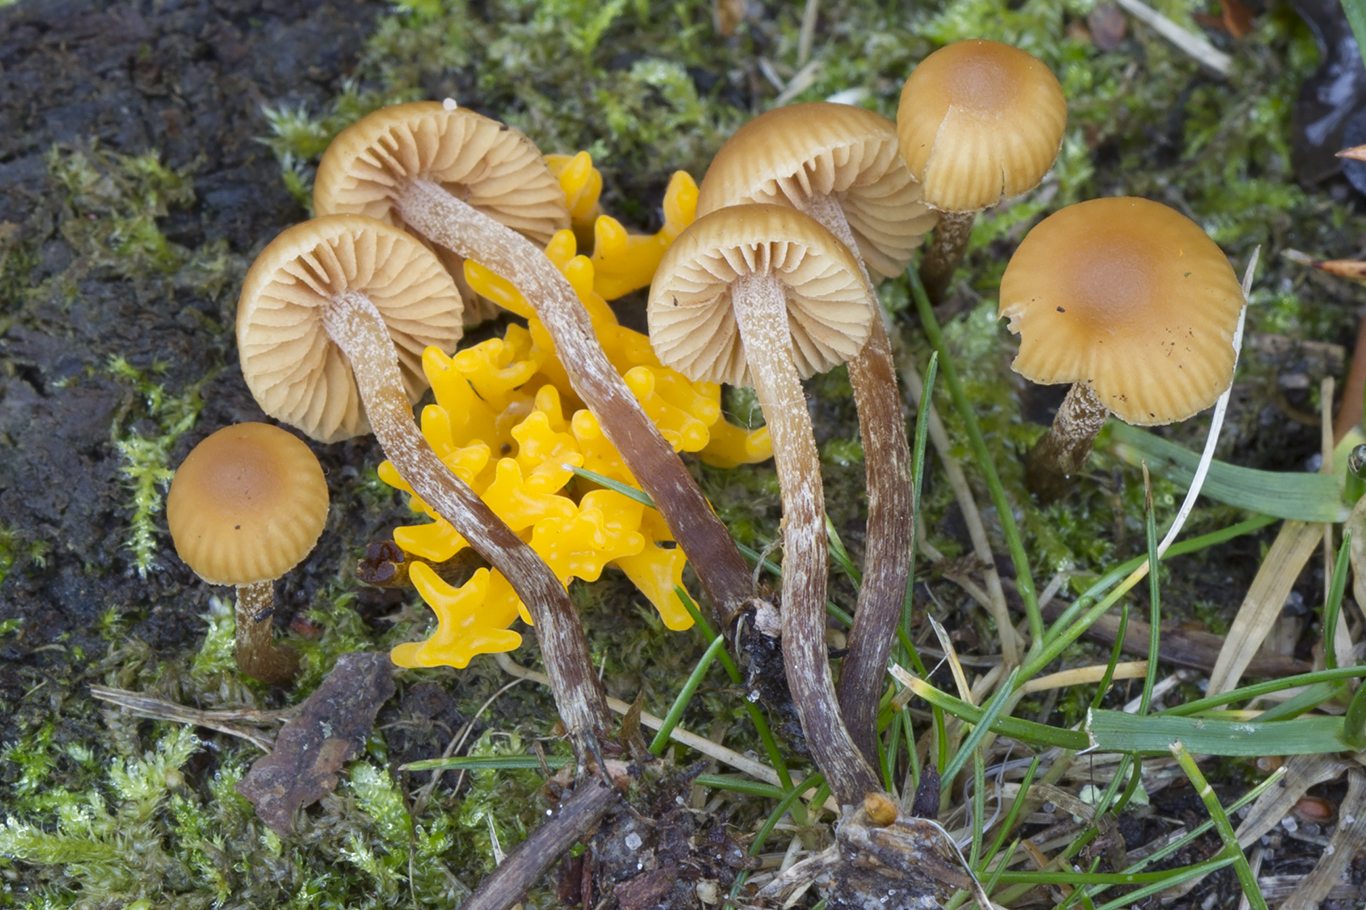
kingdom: Fungi
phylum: Basidiomycota
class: Agaricomycetes
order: Agaricales
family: Hymenogastraceae
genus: Galerina
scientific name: Galerina badipes
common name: brunstokket hjelmhat
